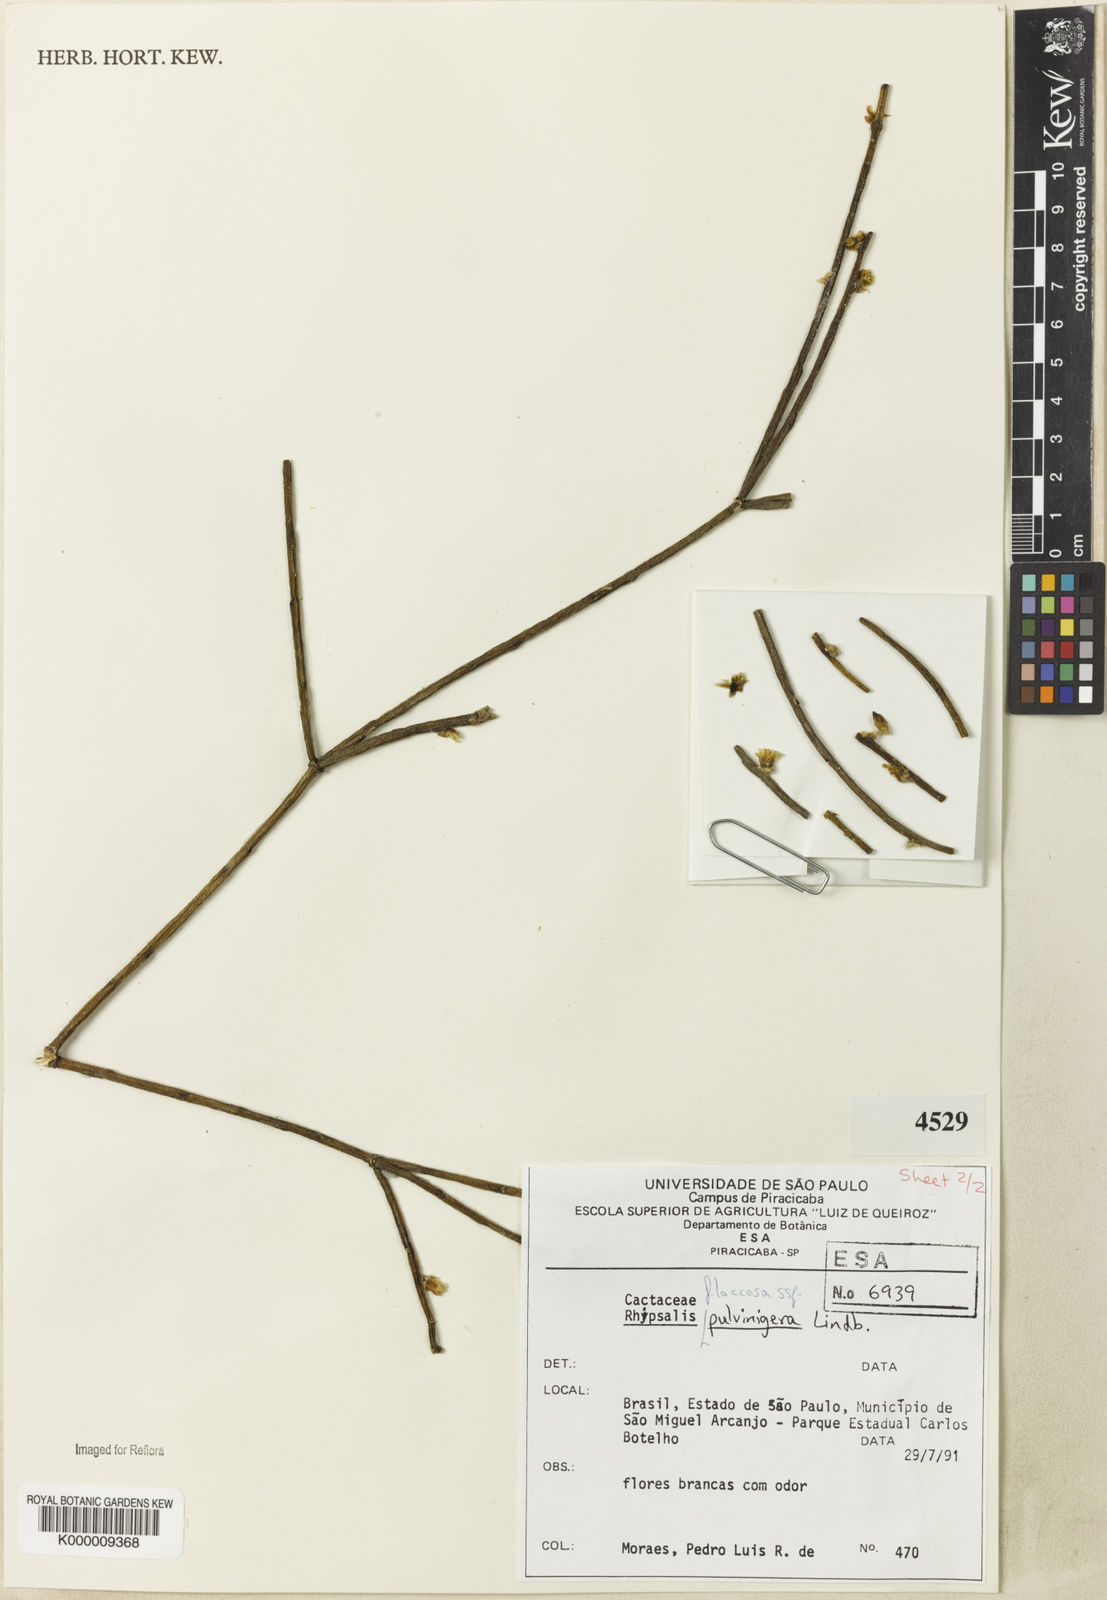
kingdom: Plantae
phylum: Tracheophyta
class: Magnoliopsida
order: Caryophyllales
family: Cactaceae
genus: Rhipsalis
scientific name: Rhipsalis floccosa
